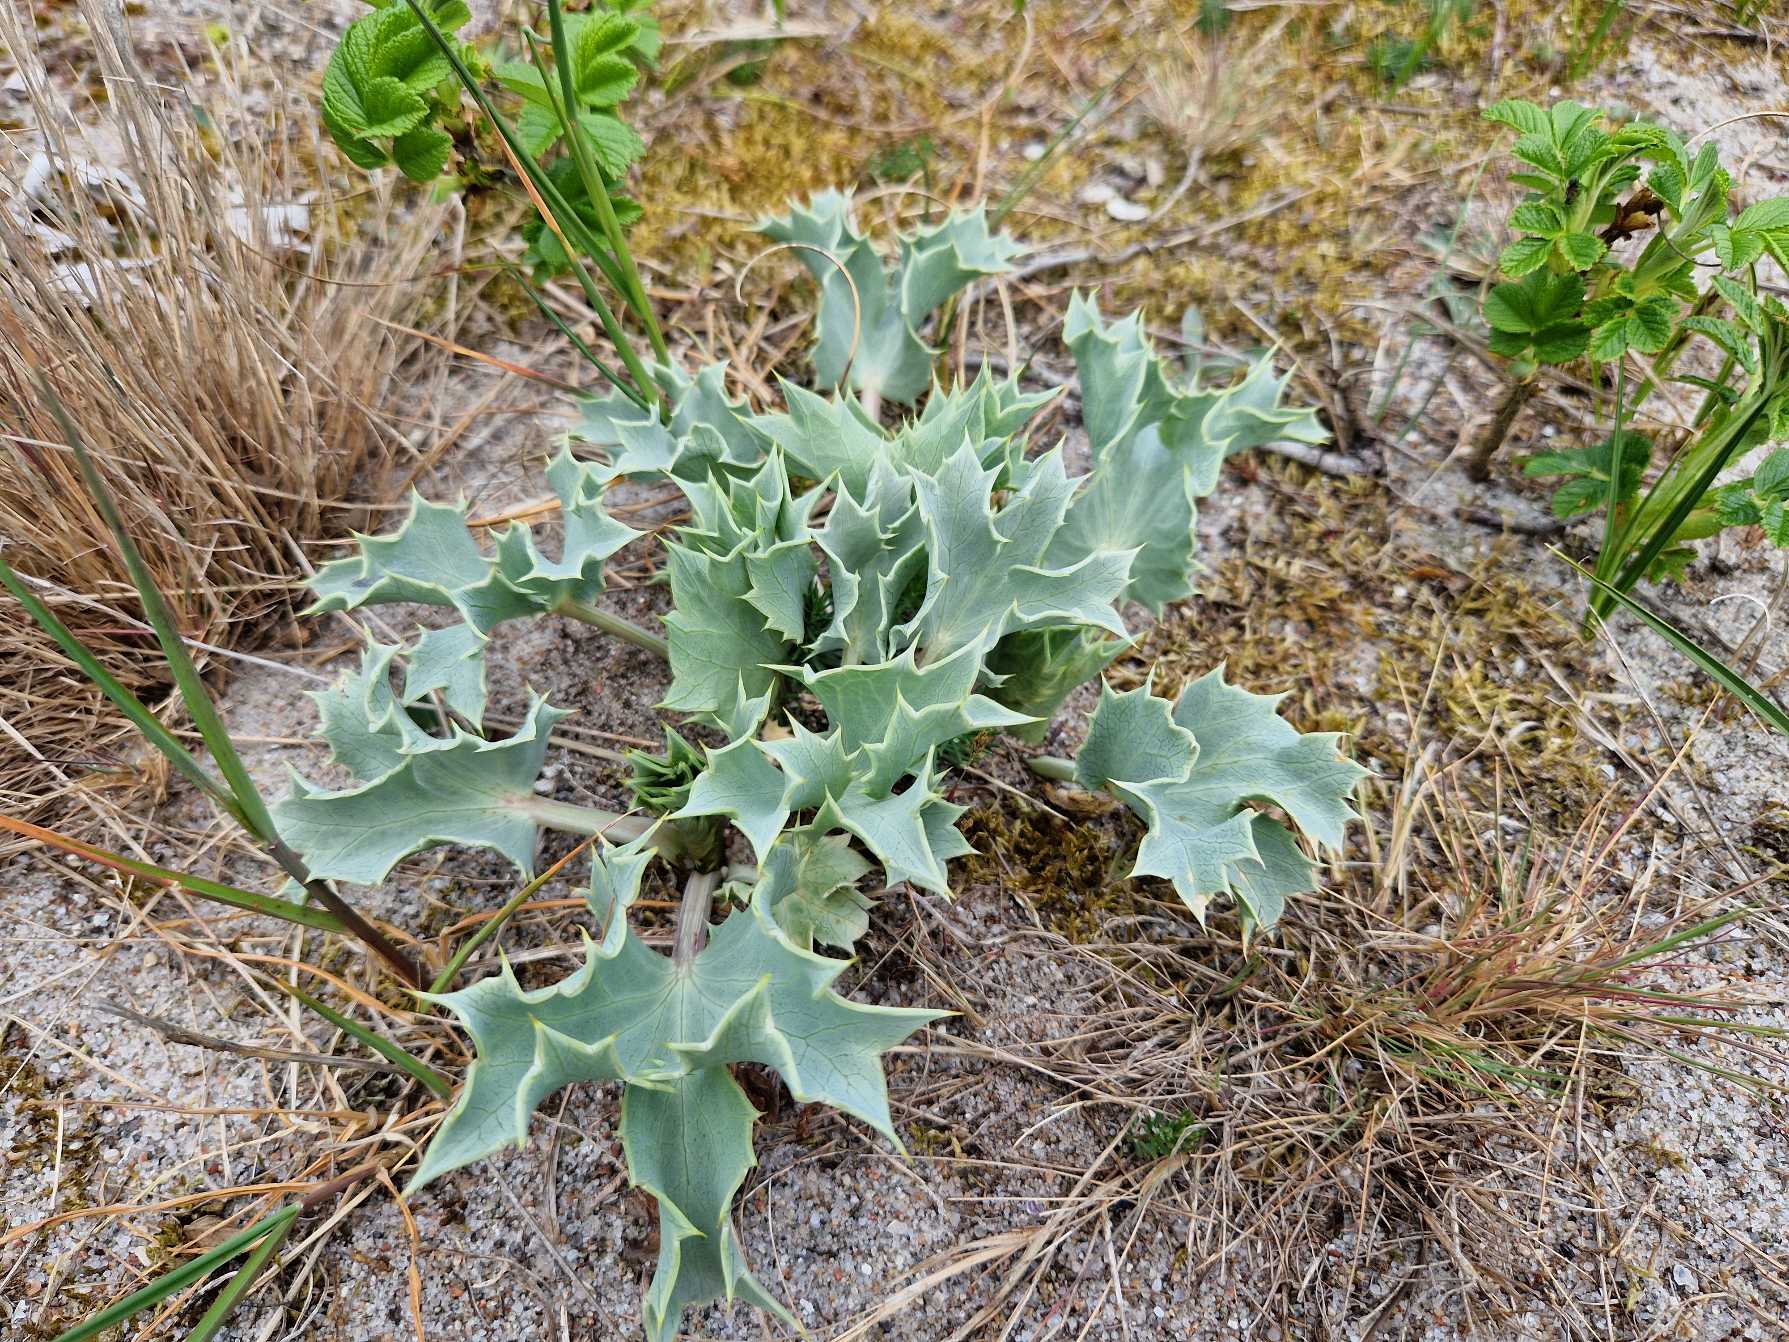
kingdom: Plantae
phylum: Tracheophyta
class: Magnoliopsida
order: Apiales
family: Apiaceae
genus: Eryngium
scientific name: Eryngium maritimum
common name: Strand-mandstro
